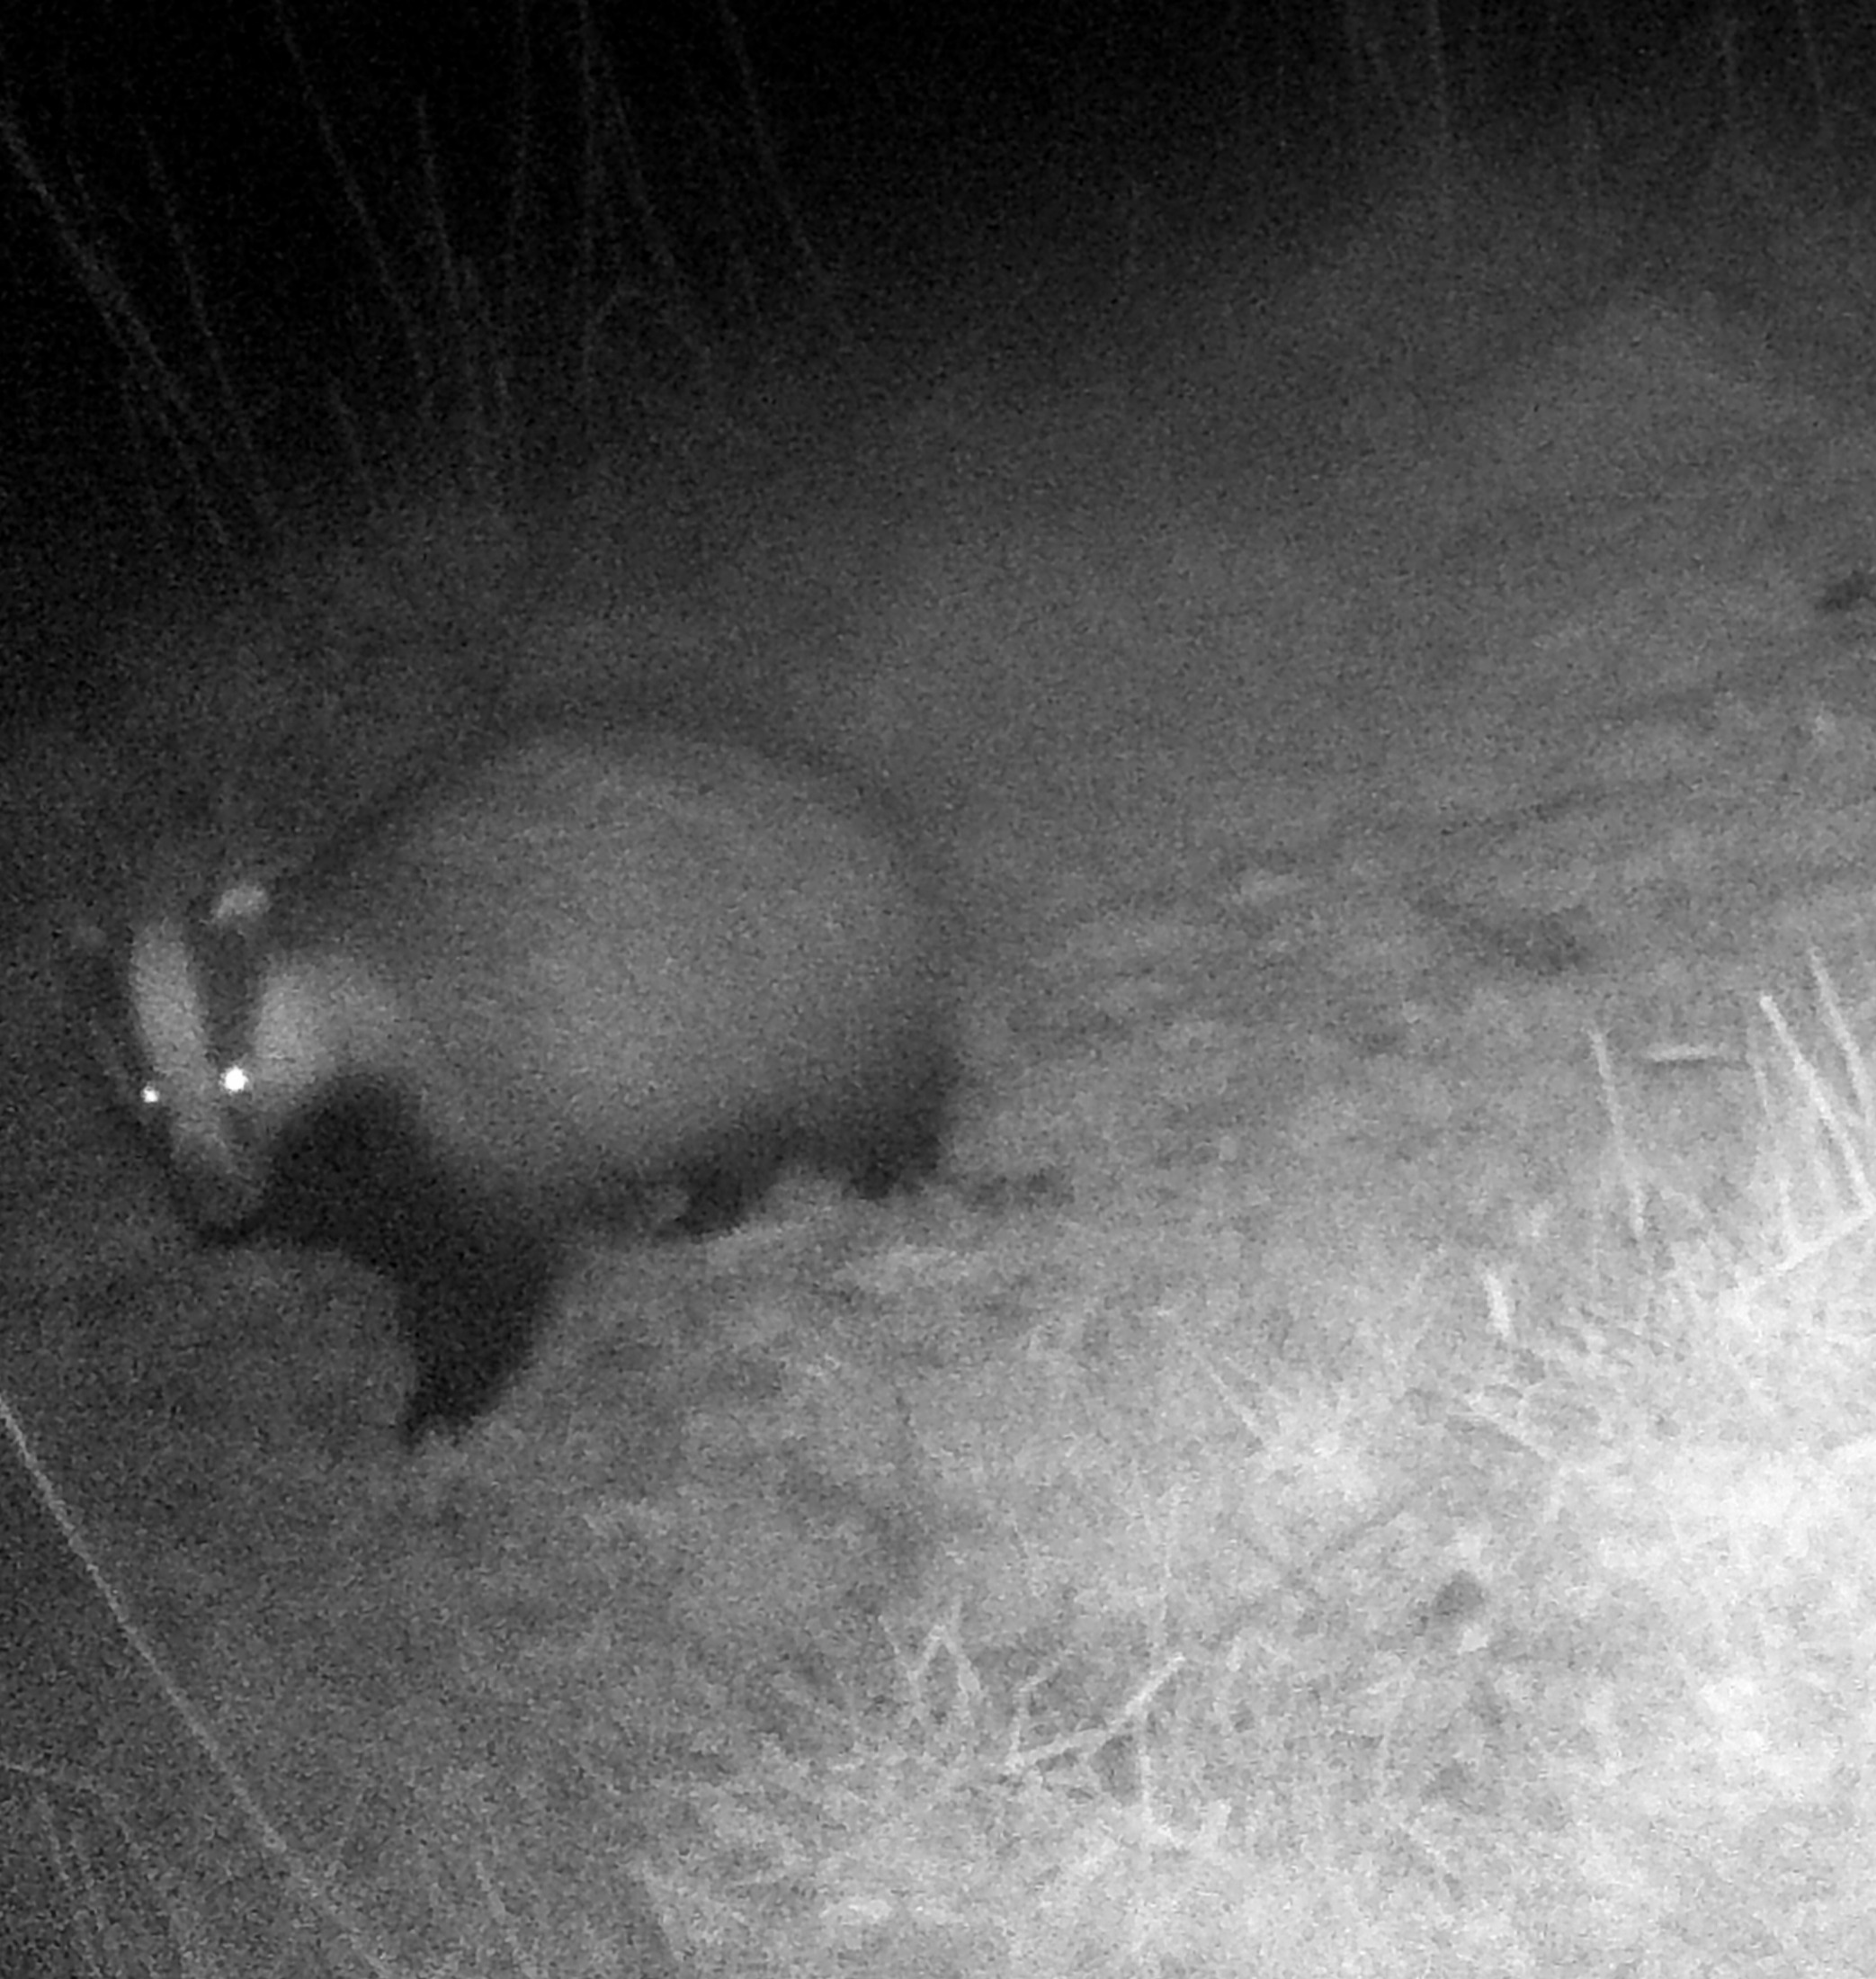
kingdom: Animalia
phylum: Chordata
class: Mammalia
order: Carnivora
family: Mustelidae
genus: Meles
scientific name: Meles meles
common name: Grævling
